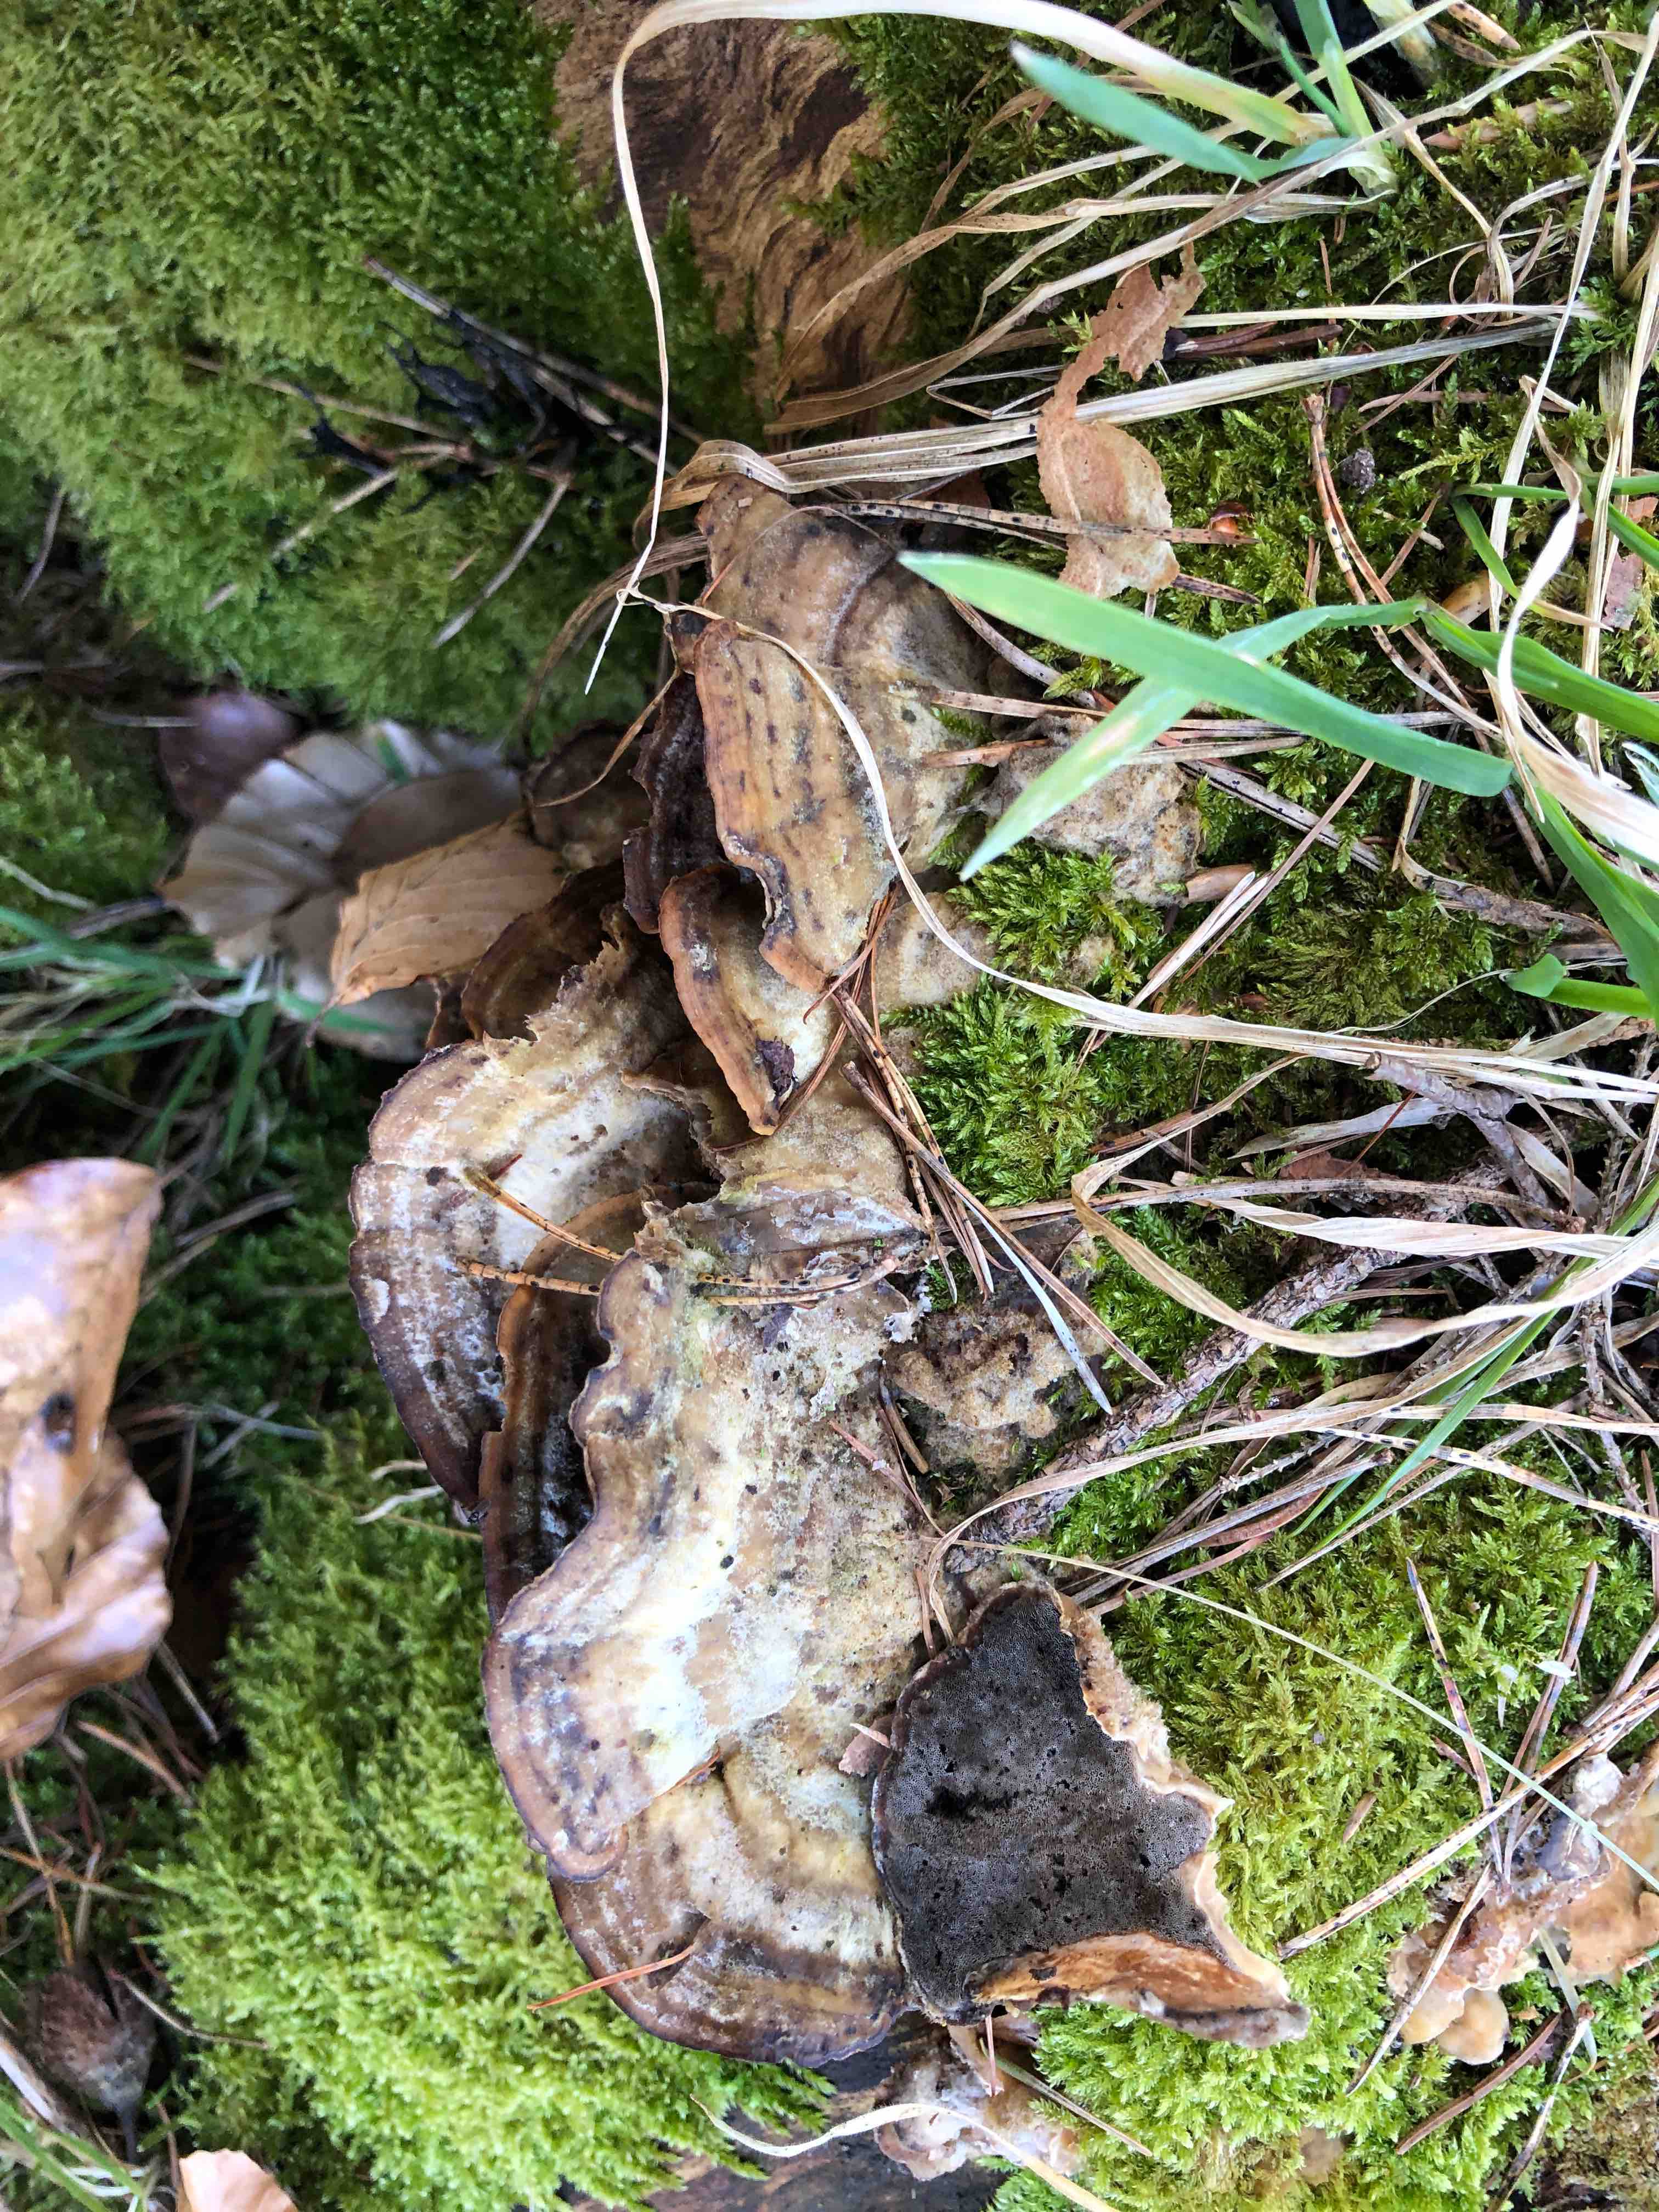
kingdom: Fungi
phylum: Basidiomycota
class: Agaricomycetes
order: Polyporales
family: Phanerochaetaceae
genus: Bjerkandera
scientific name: Bjerkandera adusta
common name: sveden sodporesvamp
